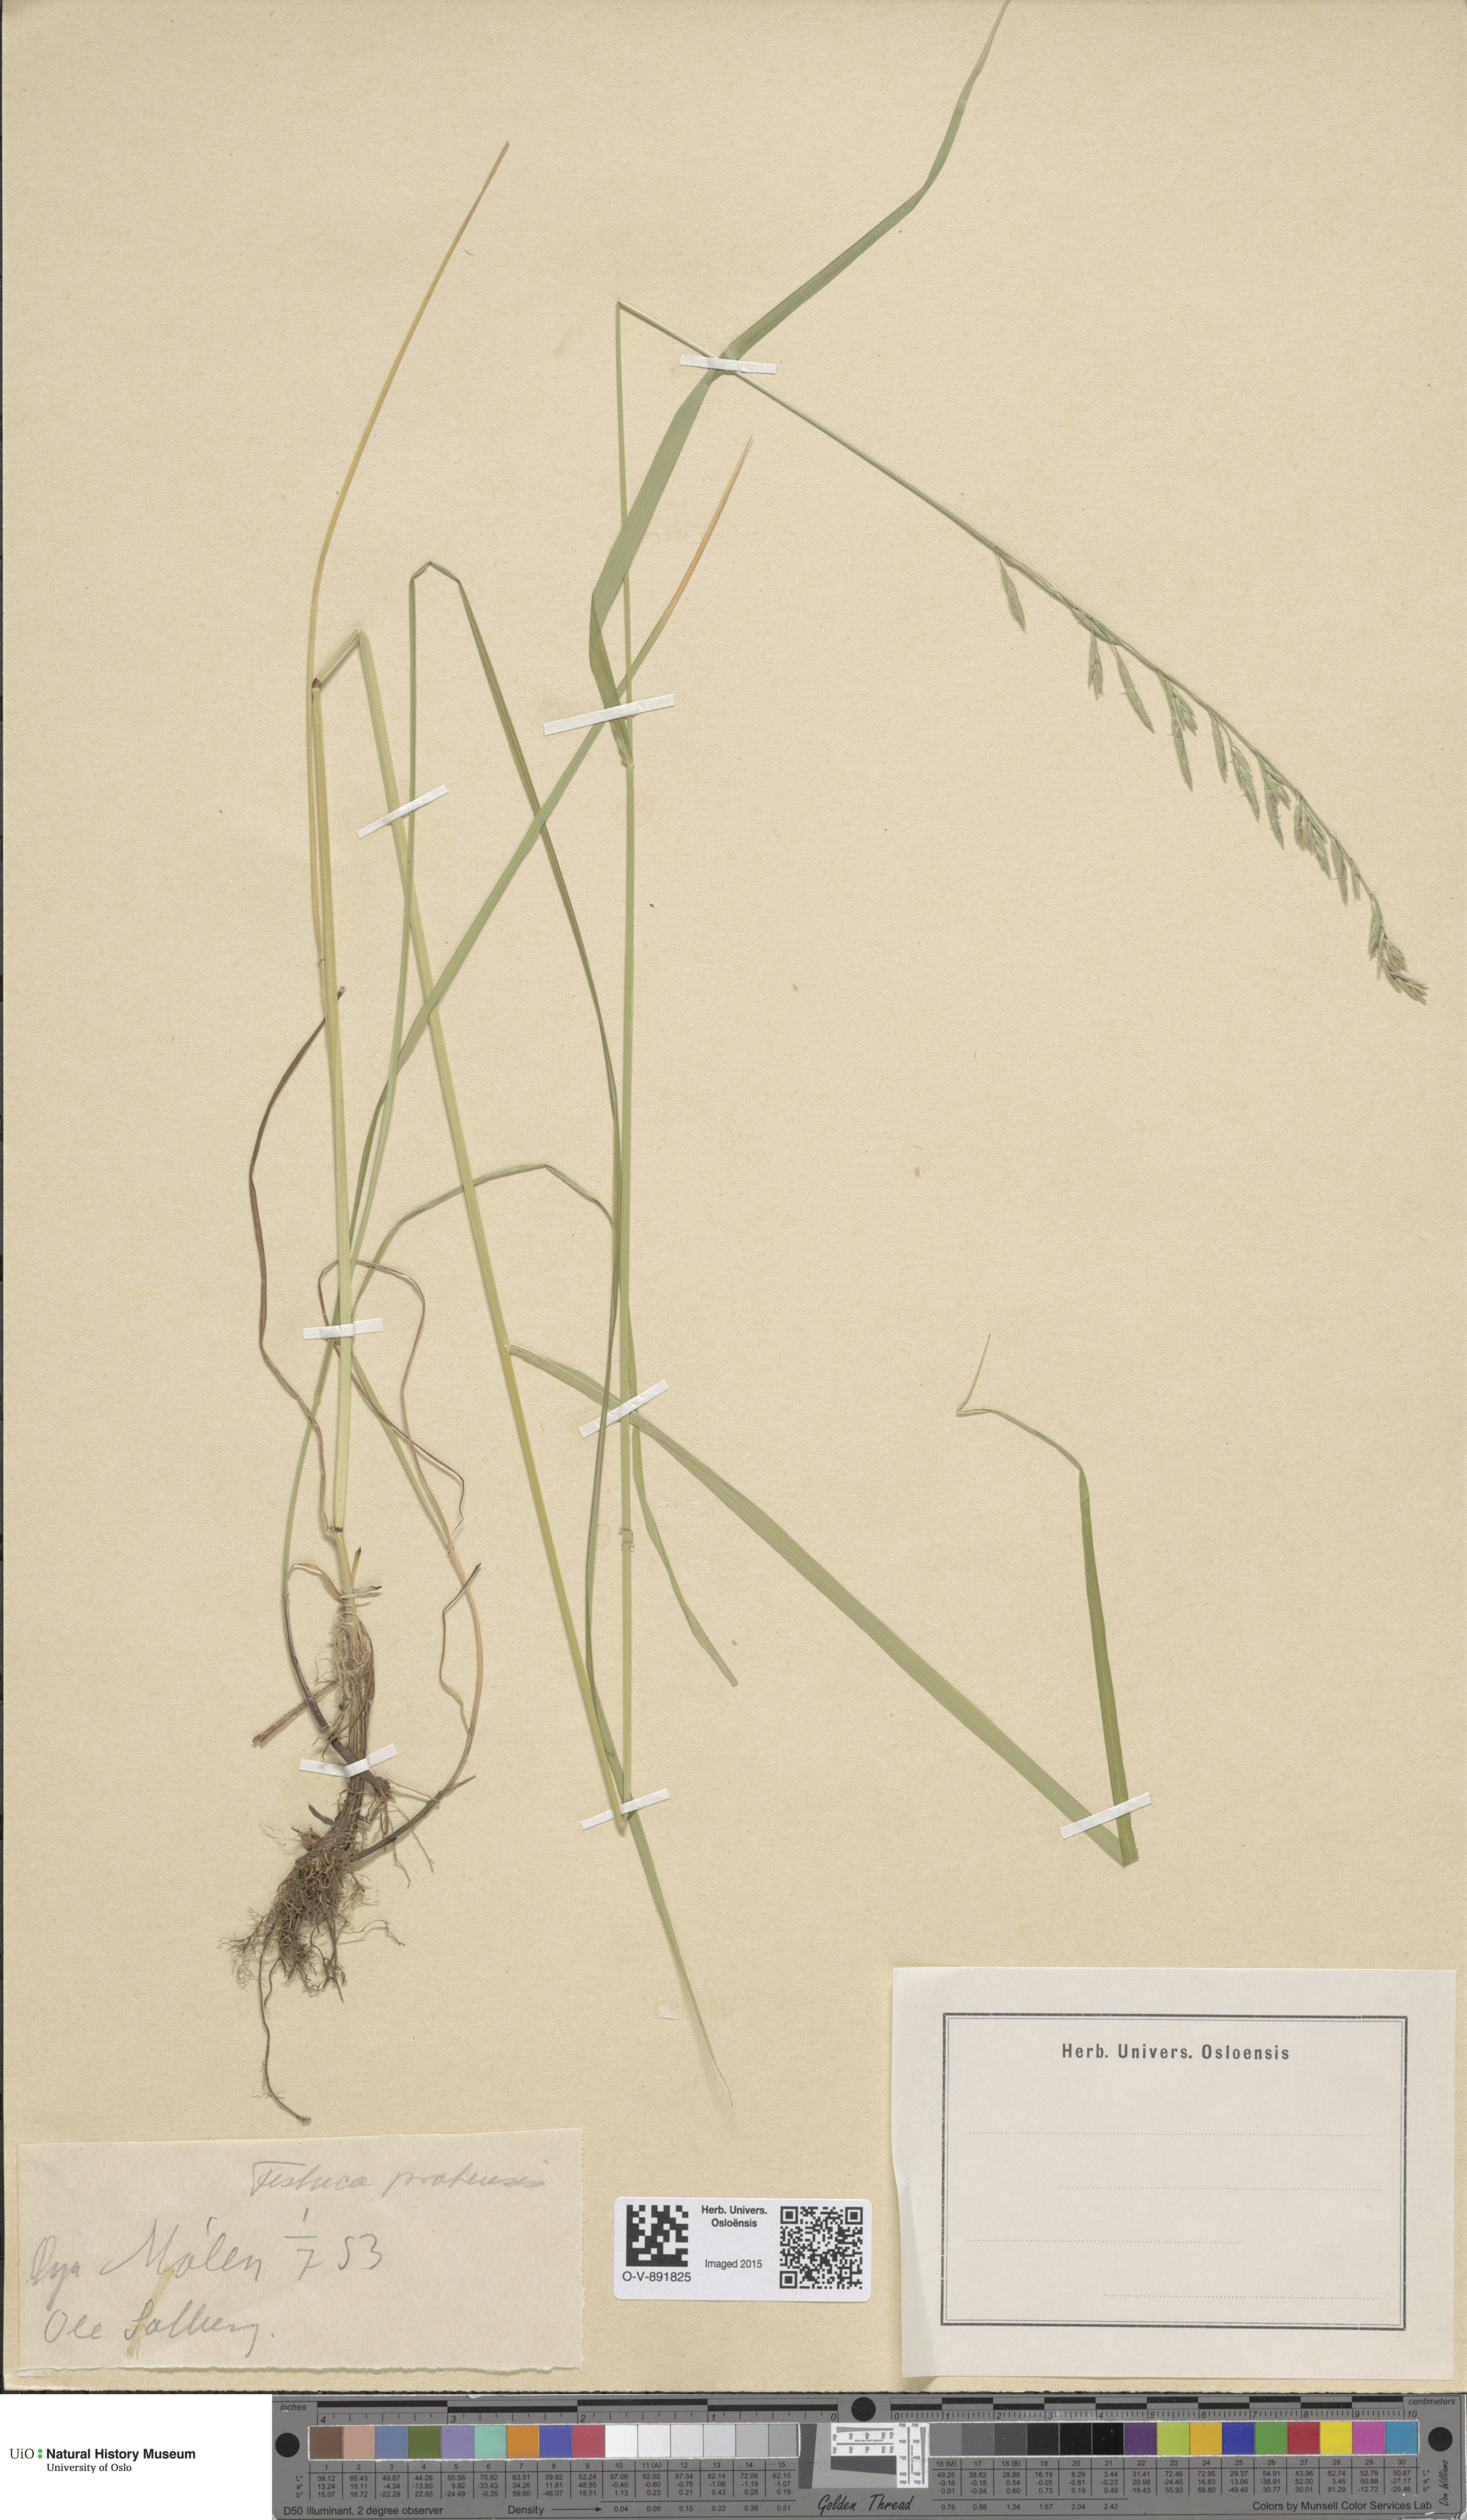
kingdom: Plantae
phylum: Tracheophyta
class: Liliopsida
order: Poales
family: Poaceae
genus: Lolium
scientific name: Lolium pratense
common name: Dover grass
